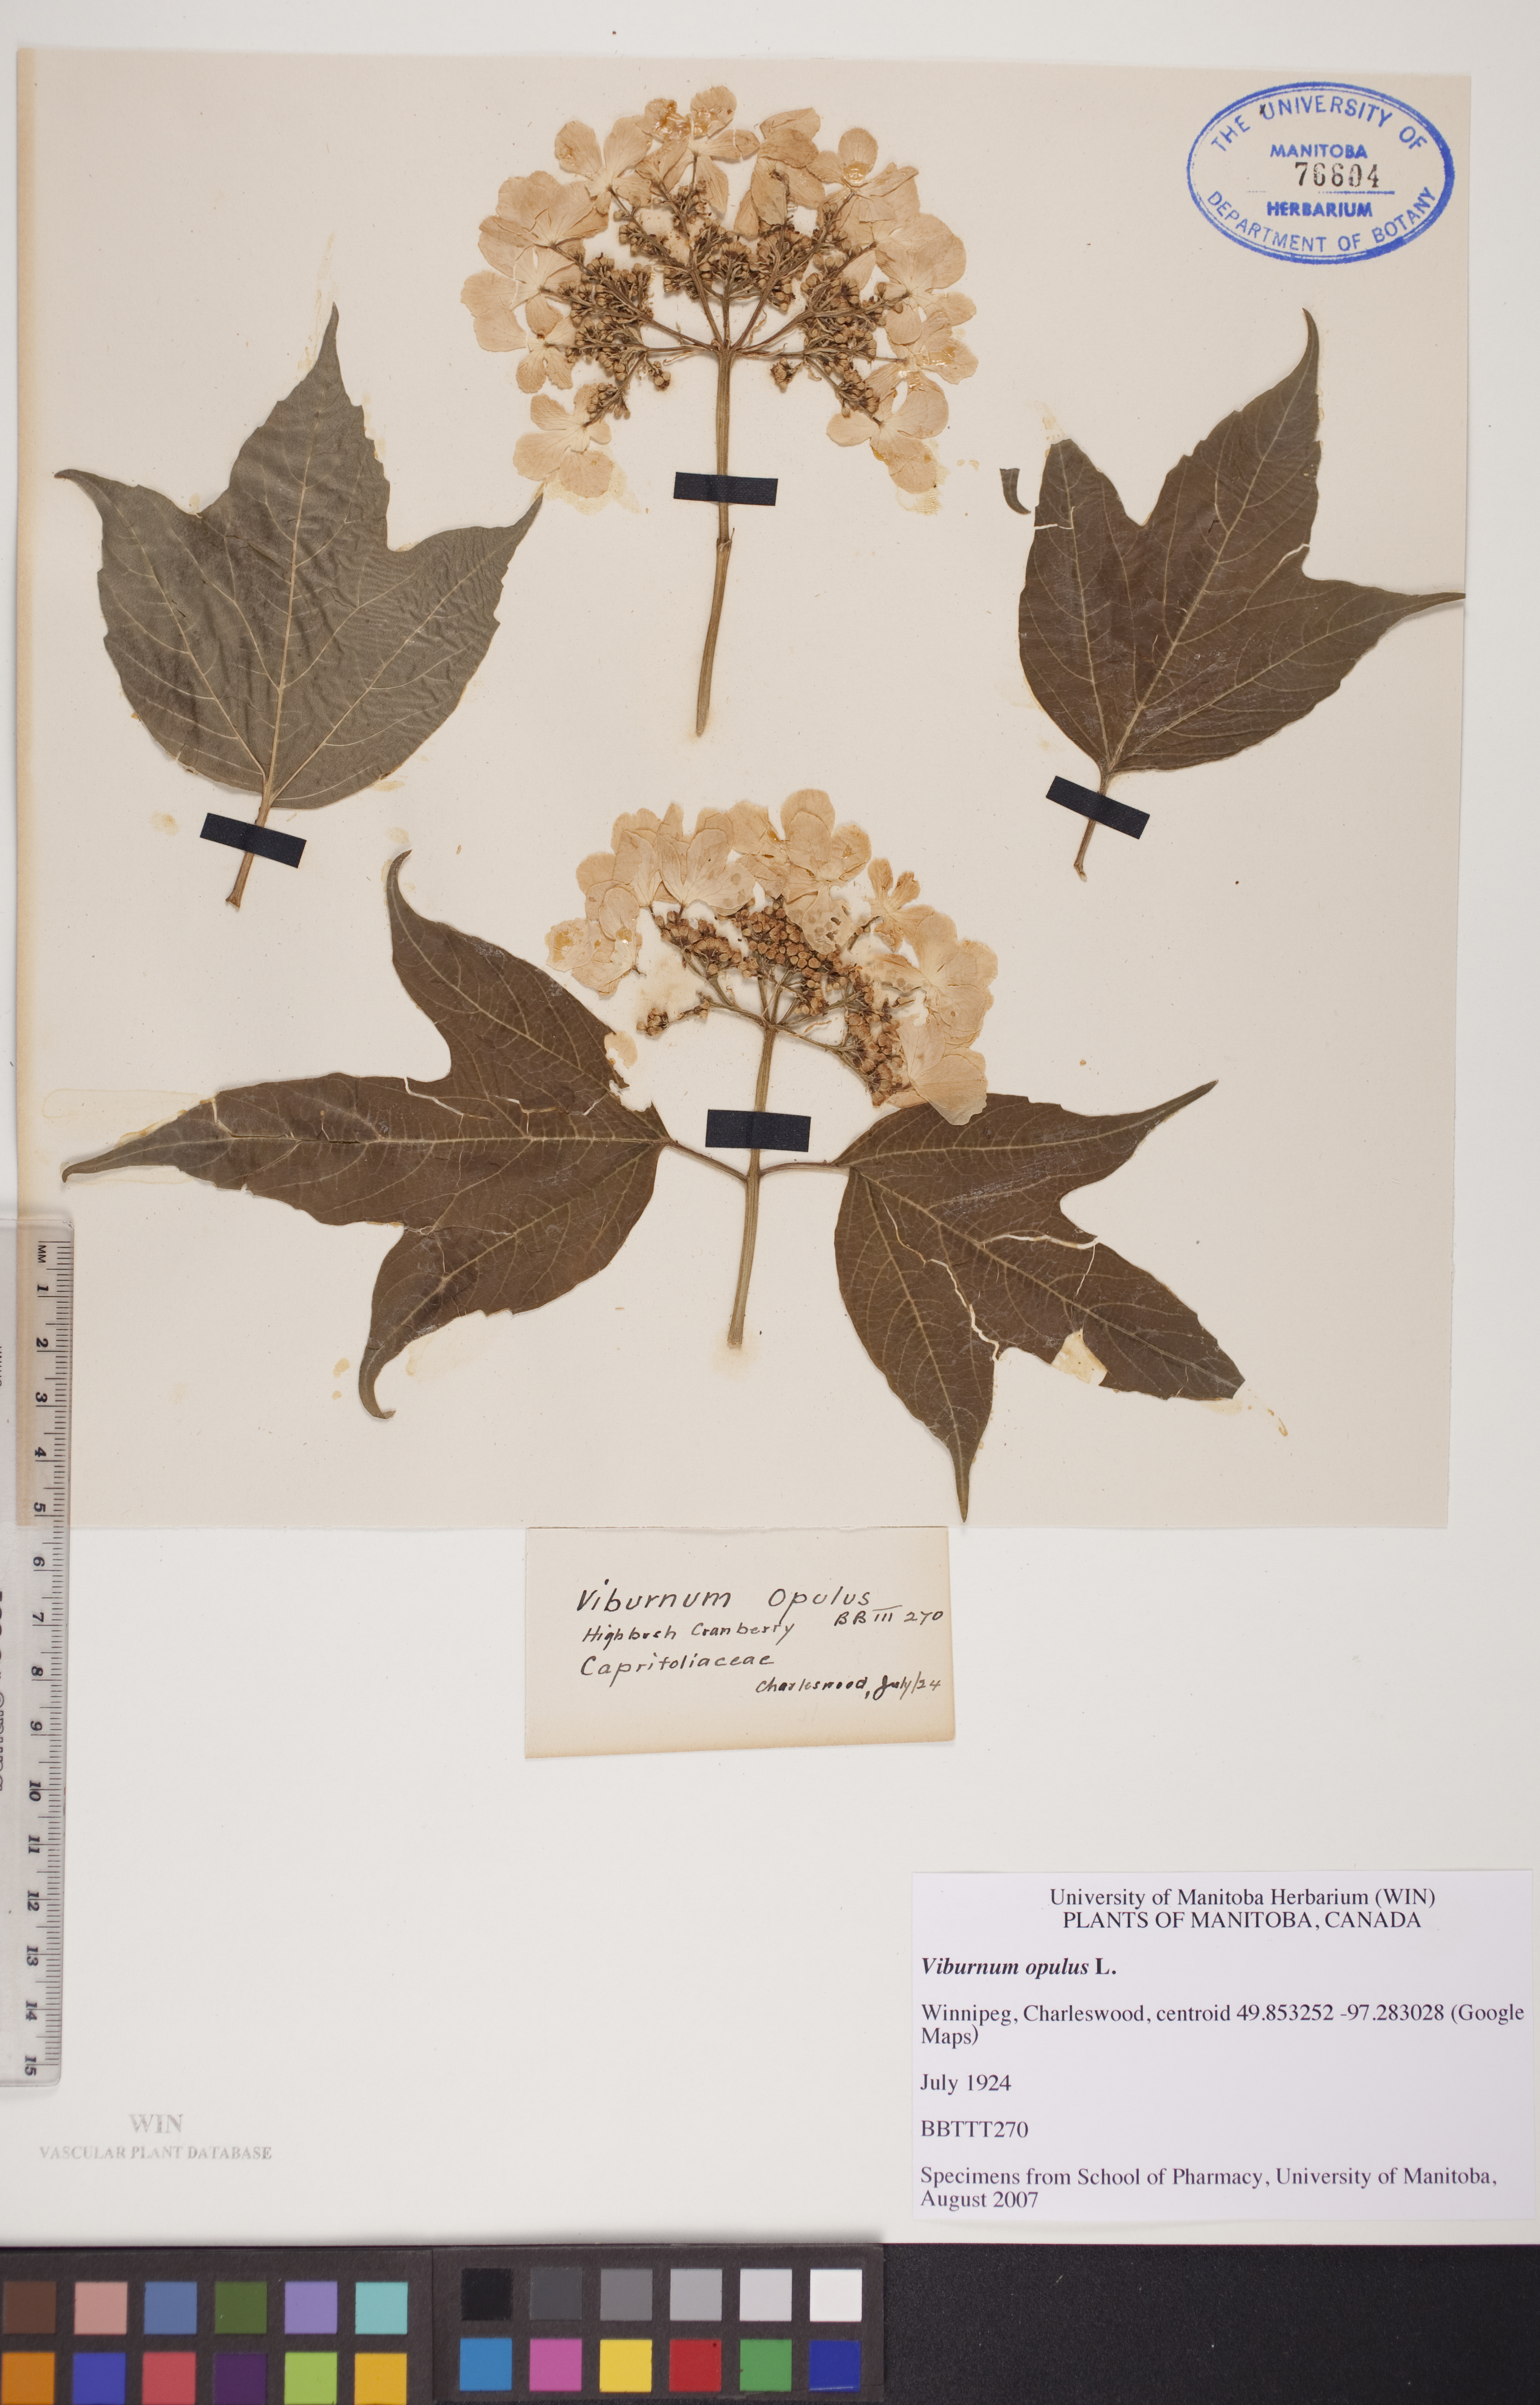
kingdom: Plantae
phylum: Tracheophyta
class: Magnoliopsida
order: Dipsacales
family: Viburnaceae
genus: Viburnum
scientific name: Viburnum opulus
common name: Guelder-rose
